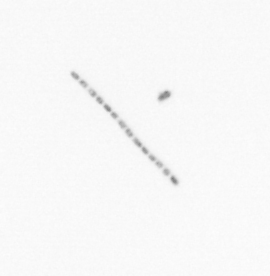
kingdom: Chromista
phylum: Ochrophyta
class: Bacillariophyceae
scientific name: Bacillariophyceae
